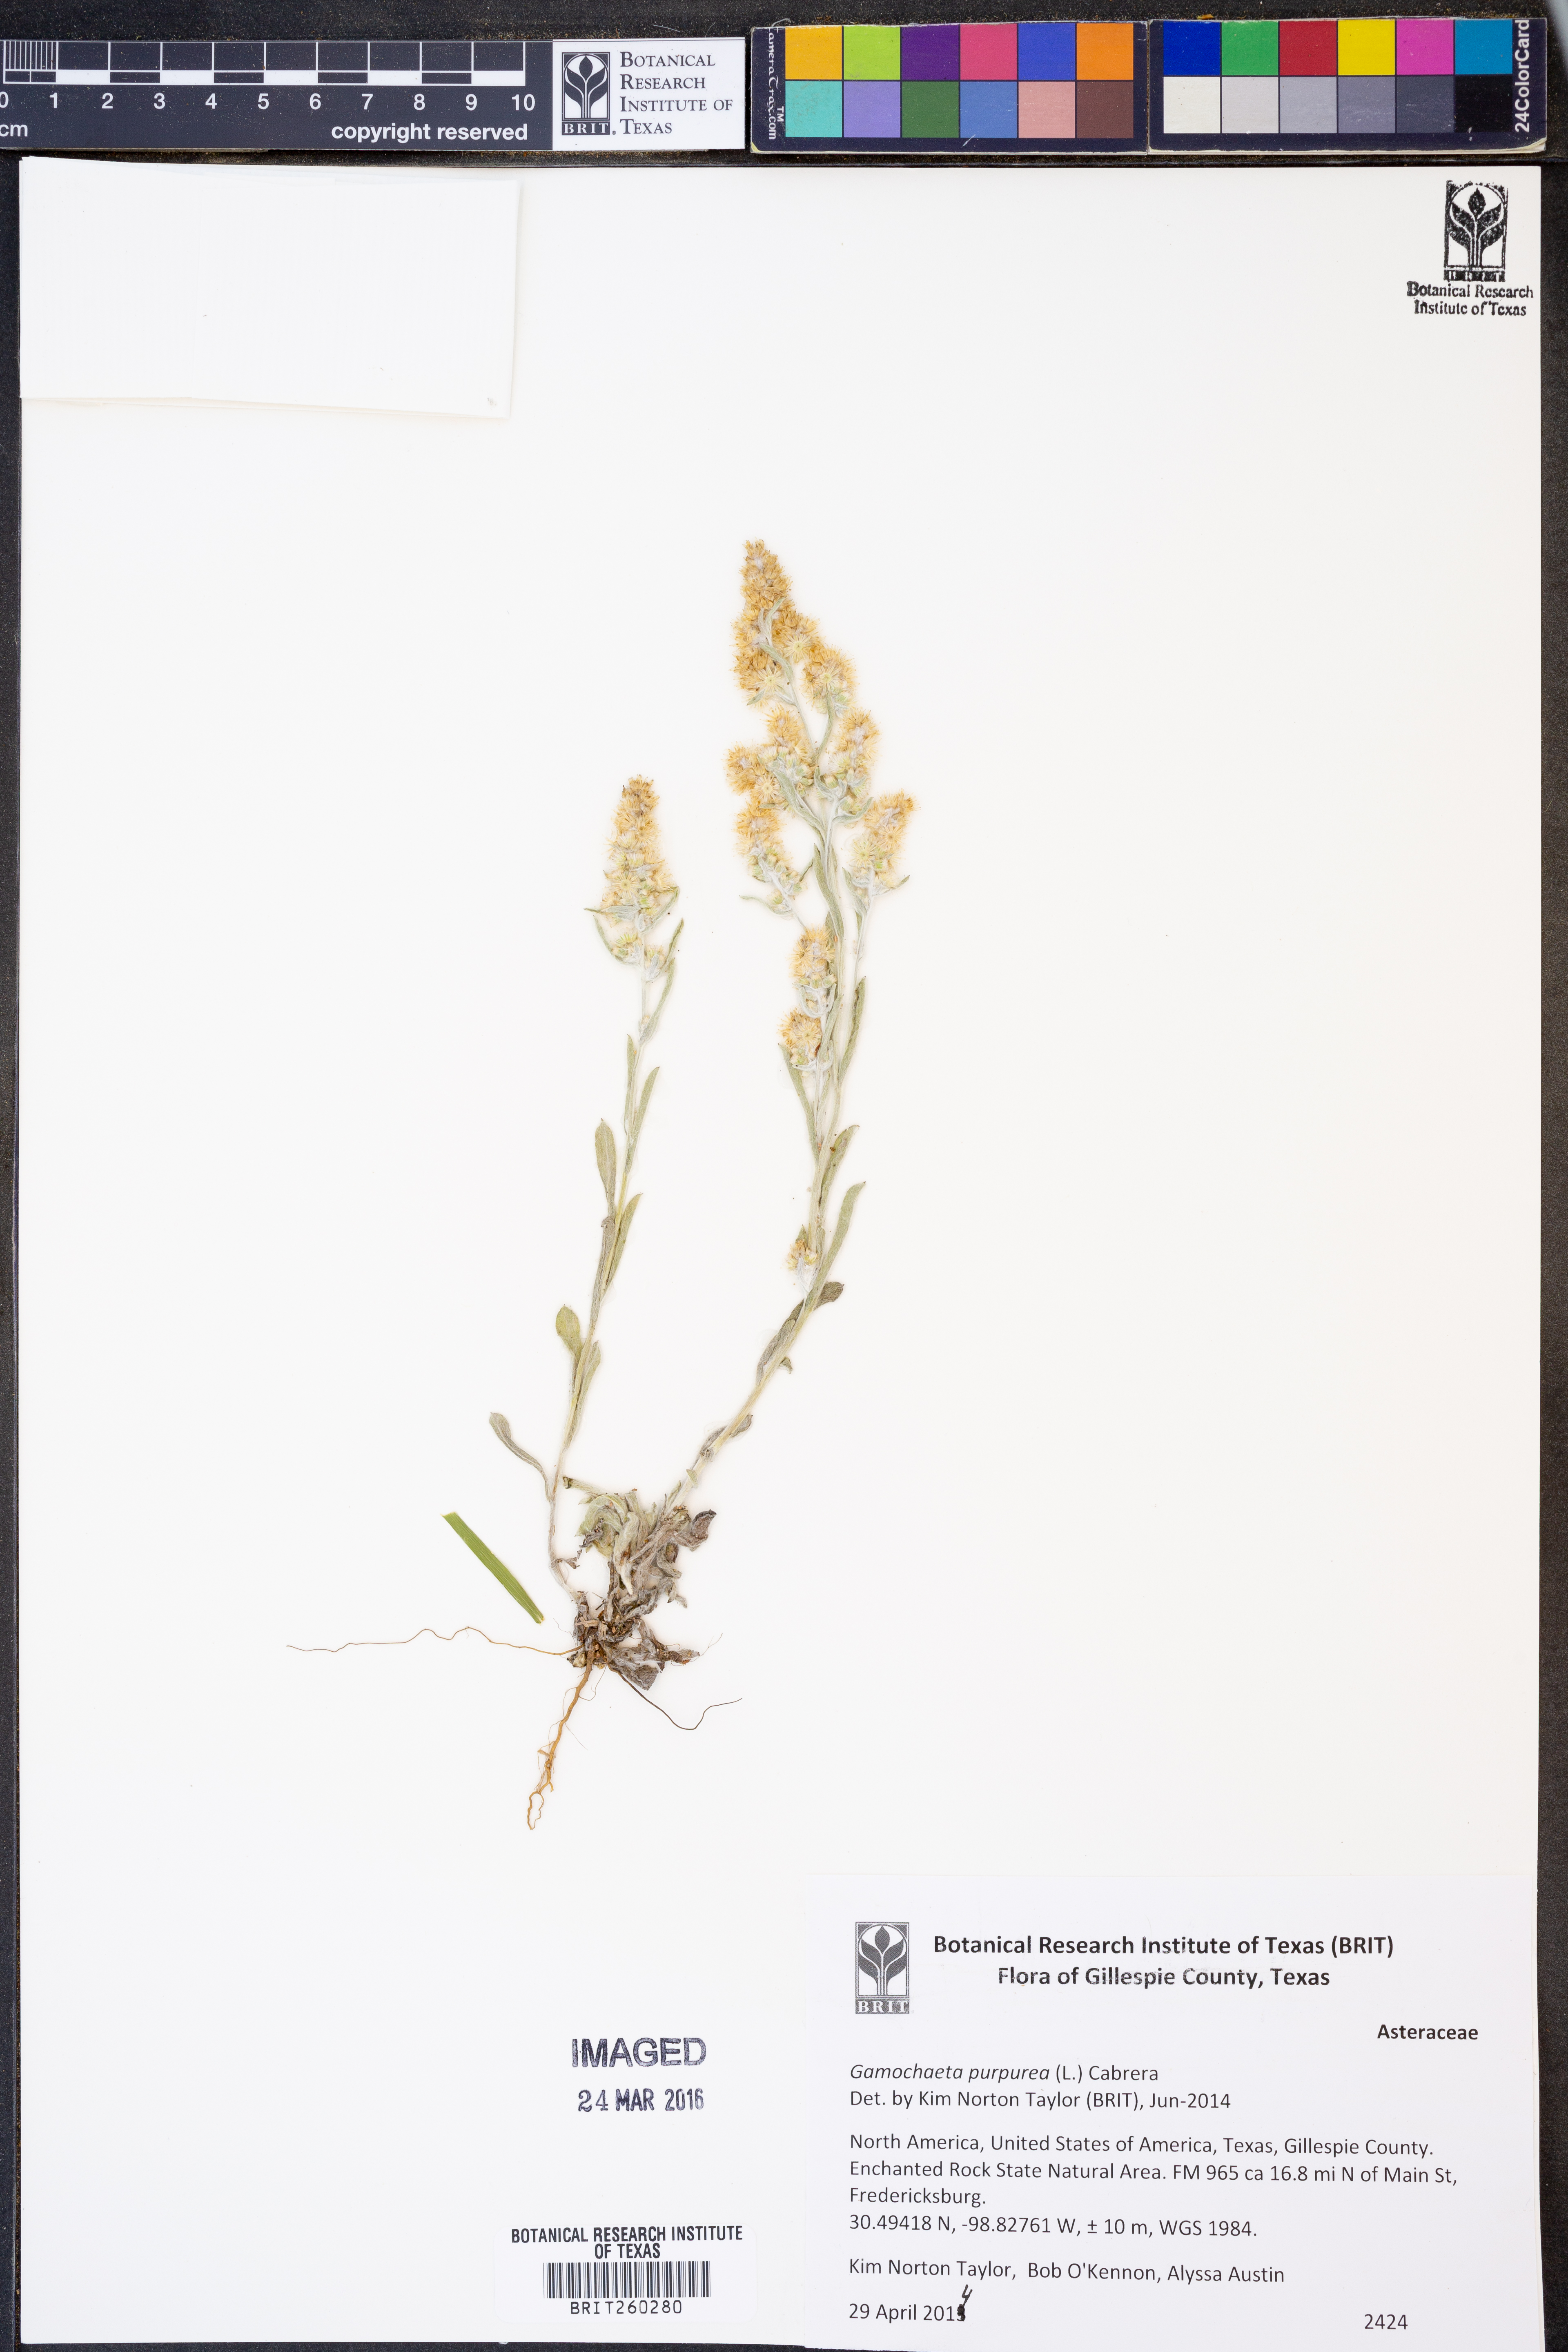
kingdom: Plantae
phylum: Tracheophyta
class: Magnoliopsida
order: Asterales
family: Asteraceae
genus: Gamochaeta
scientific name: Gamochaeta purpurea
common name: Purple cudweed
